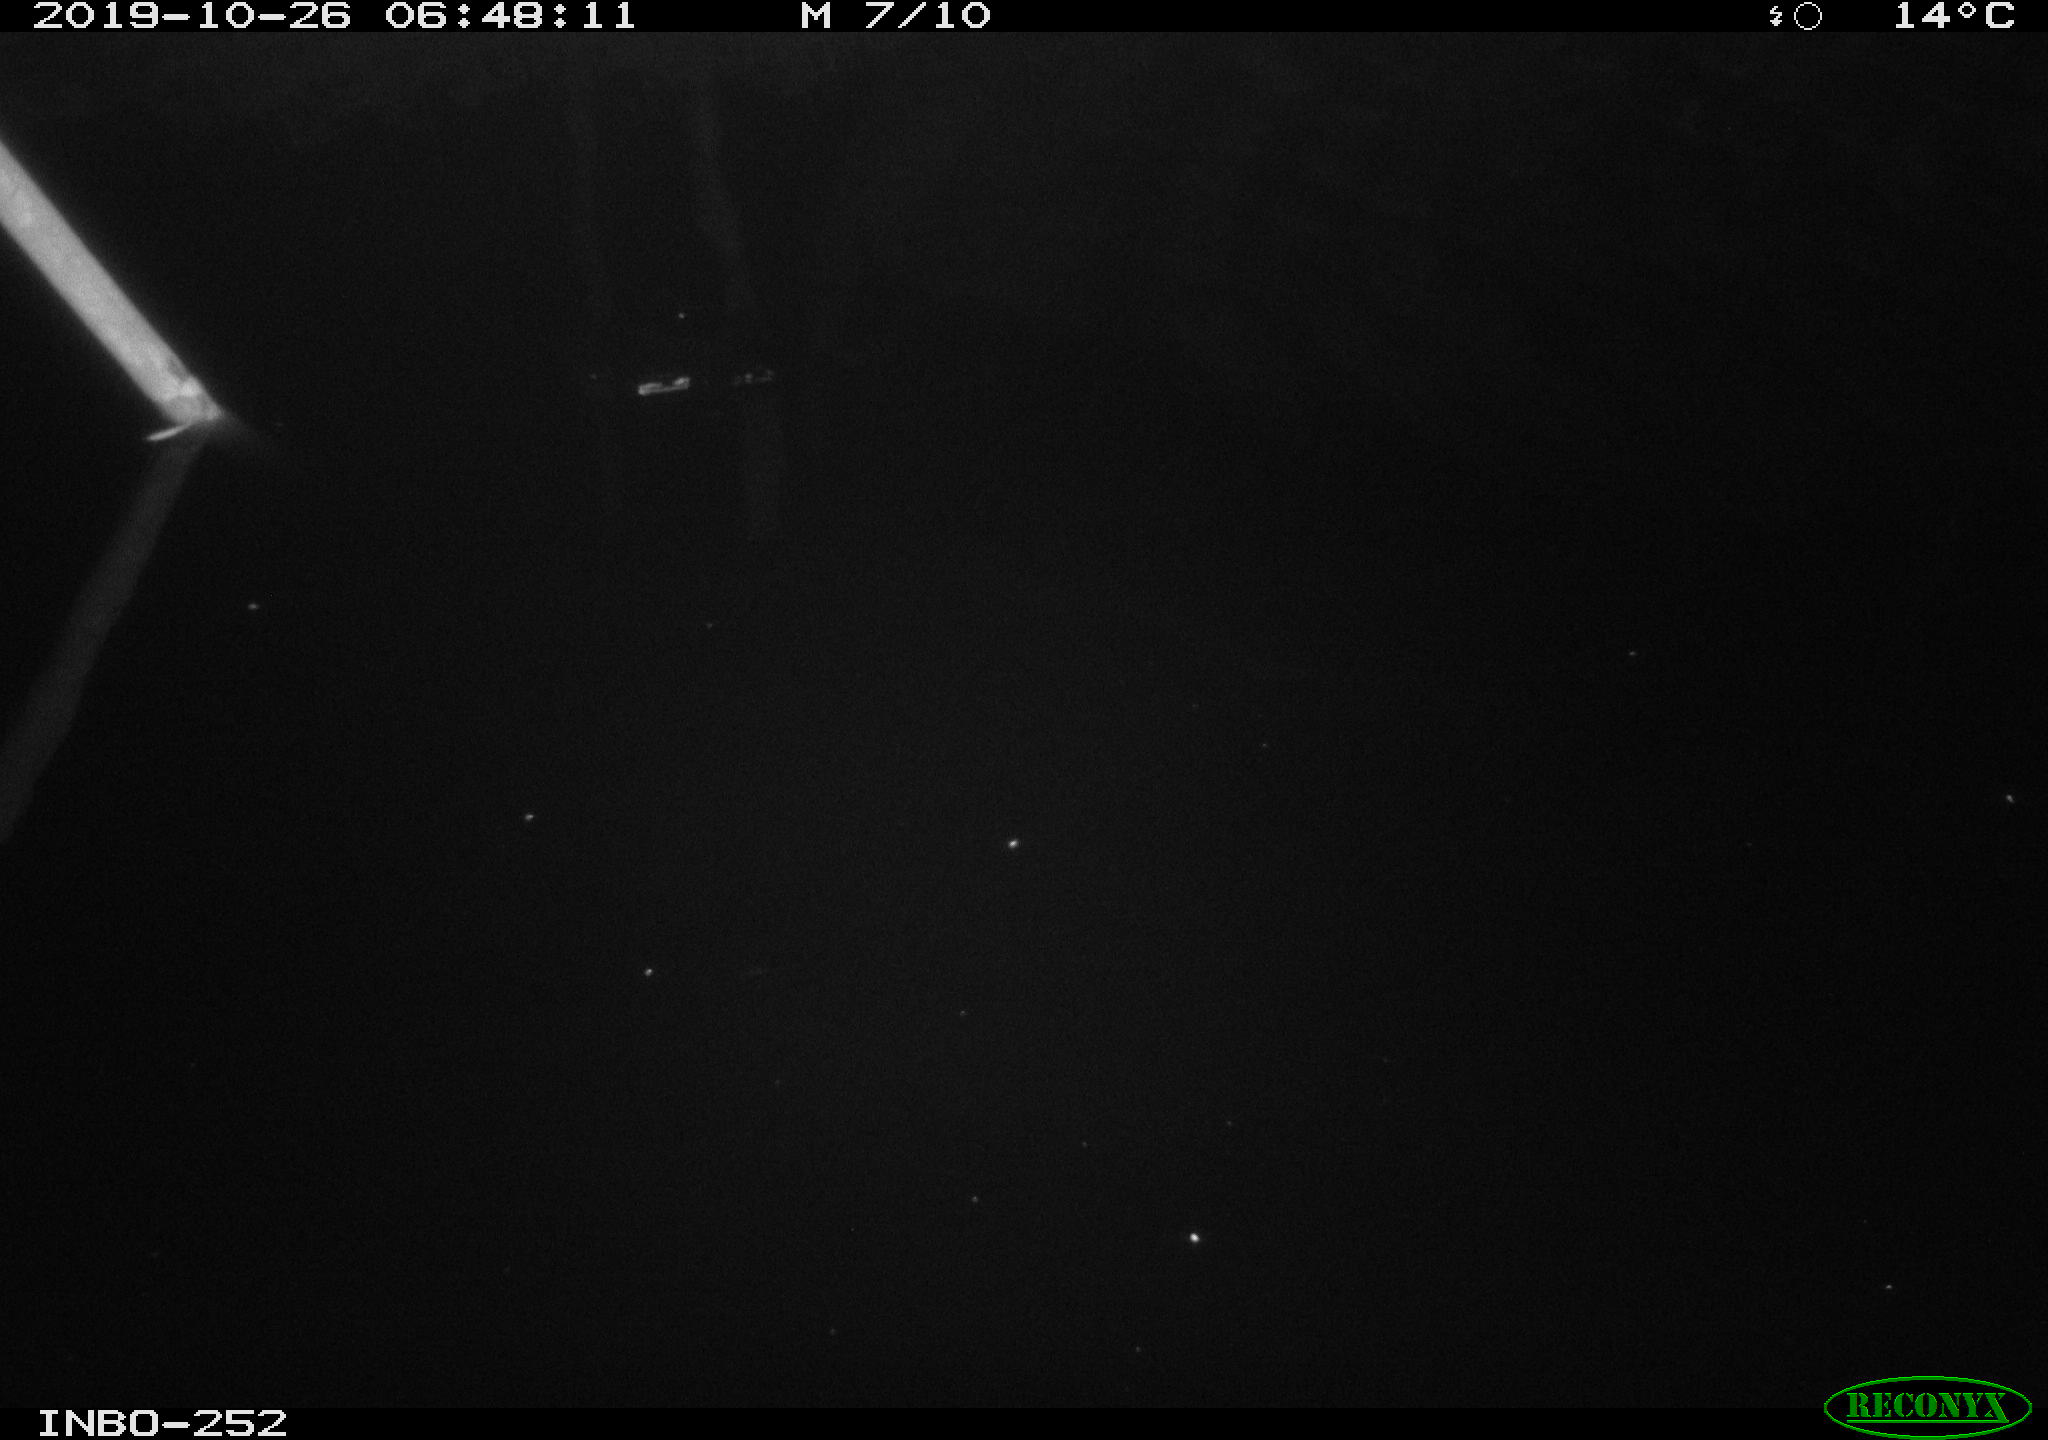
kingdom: Animalia
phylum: Chordata
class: Aves
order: Anseriformes
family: Anatidae
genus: Anas
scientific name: Anas platyrhynchos
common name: Mallard
